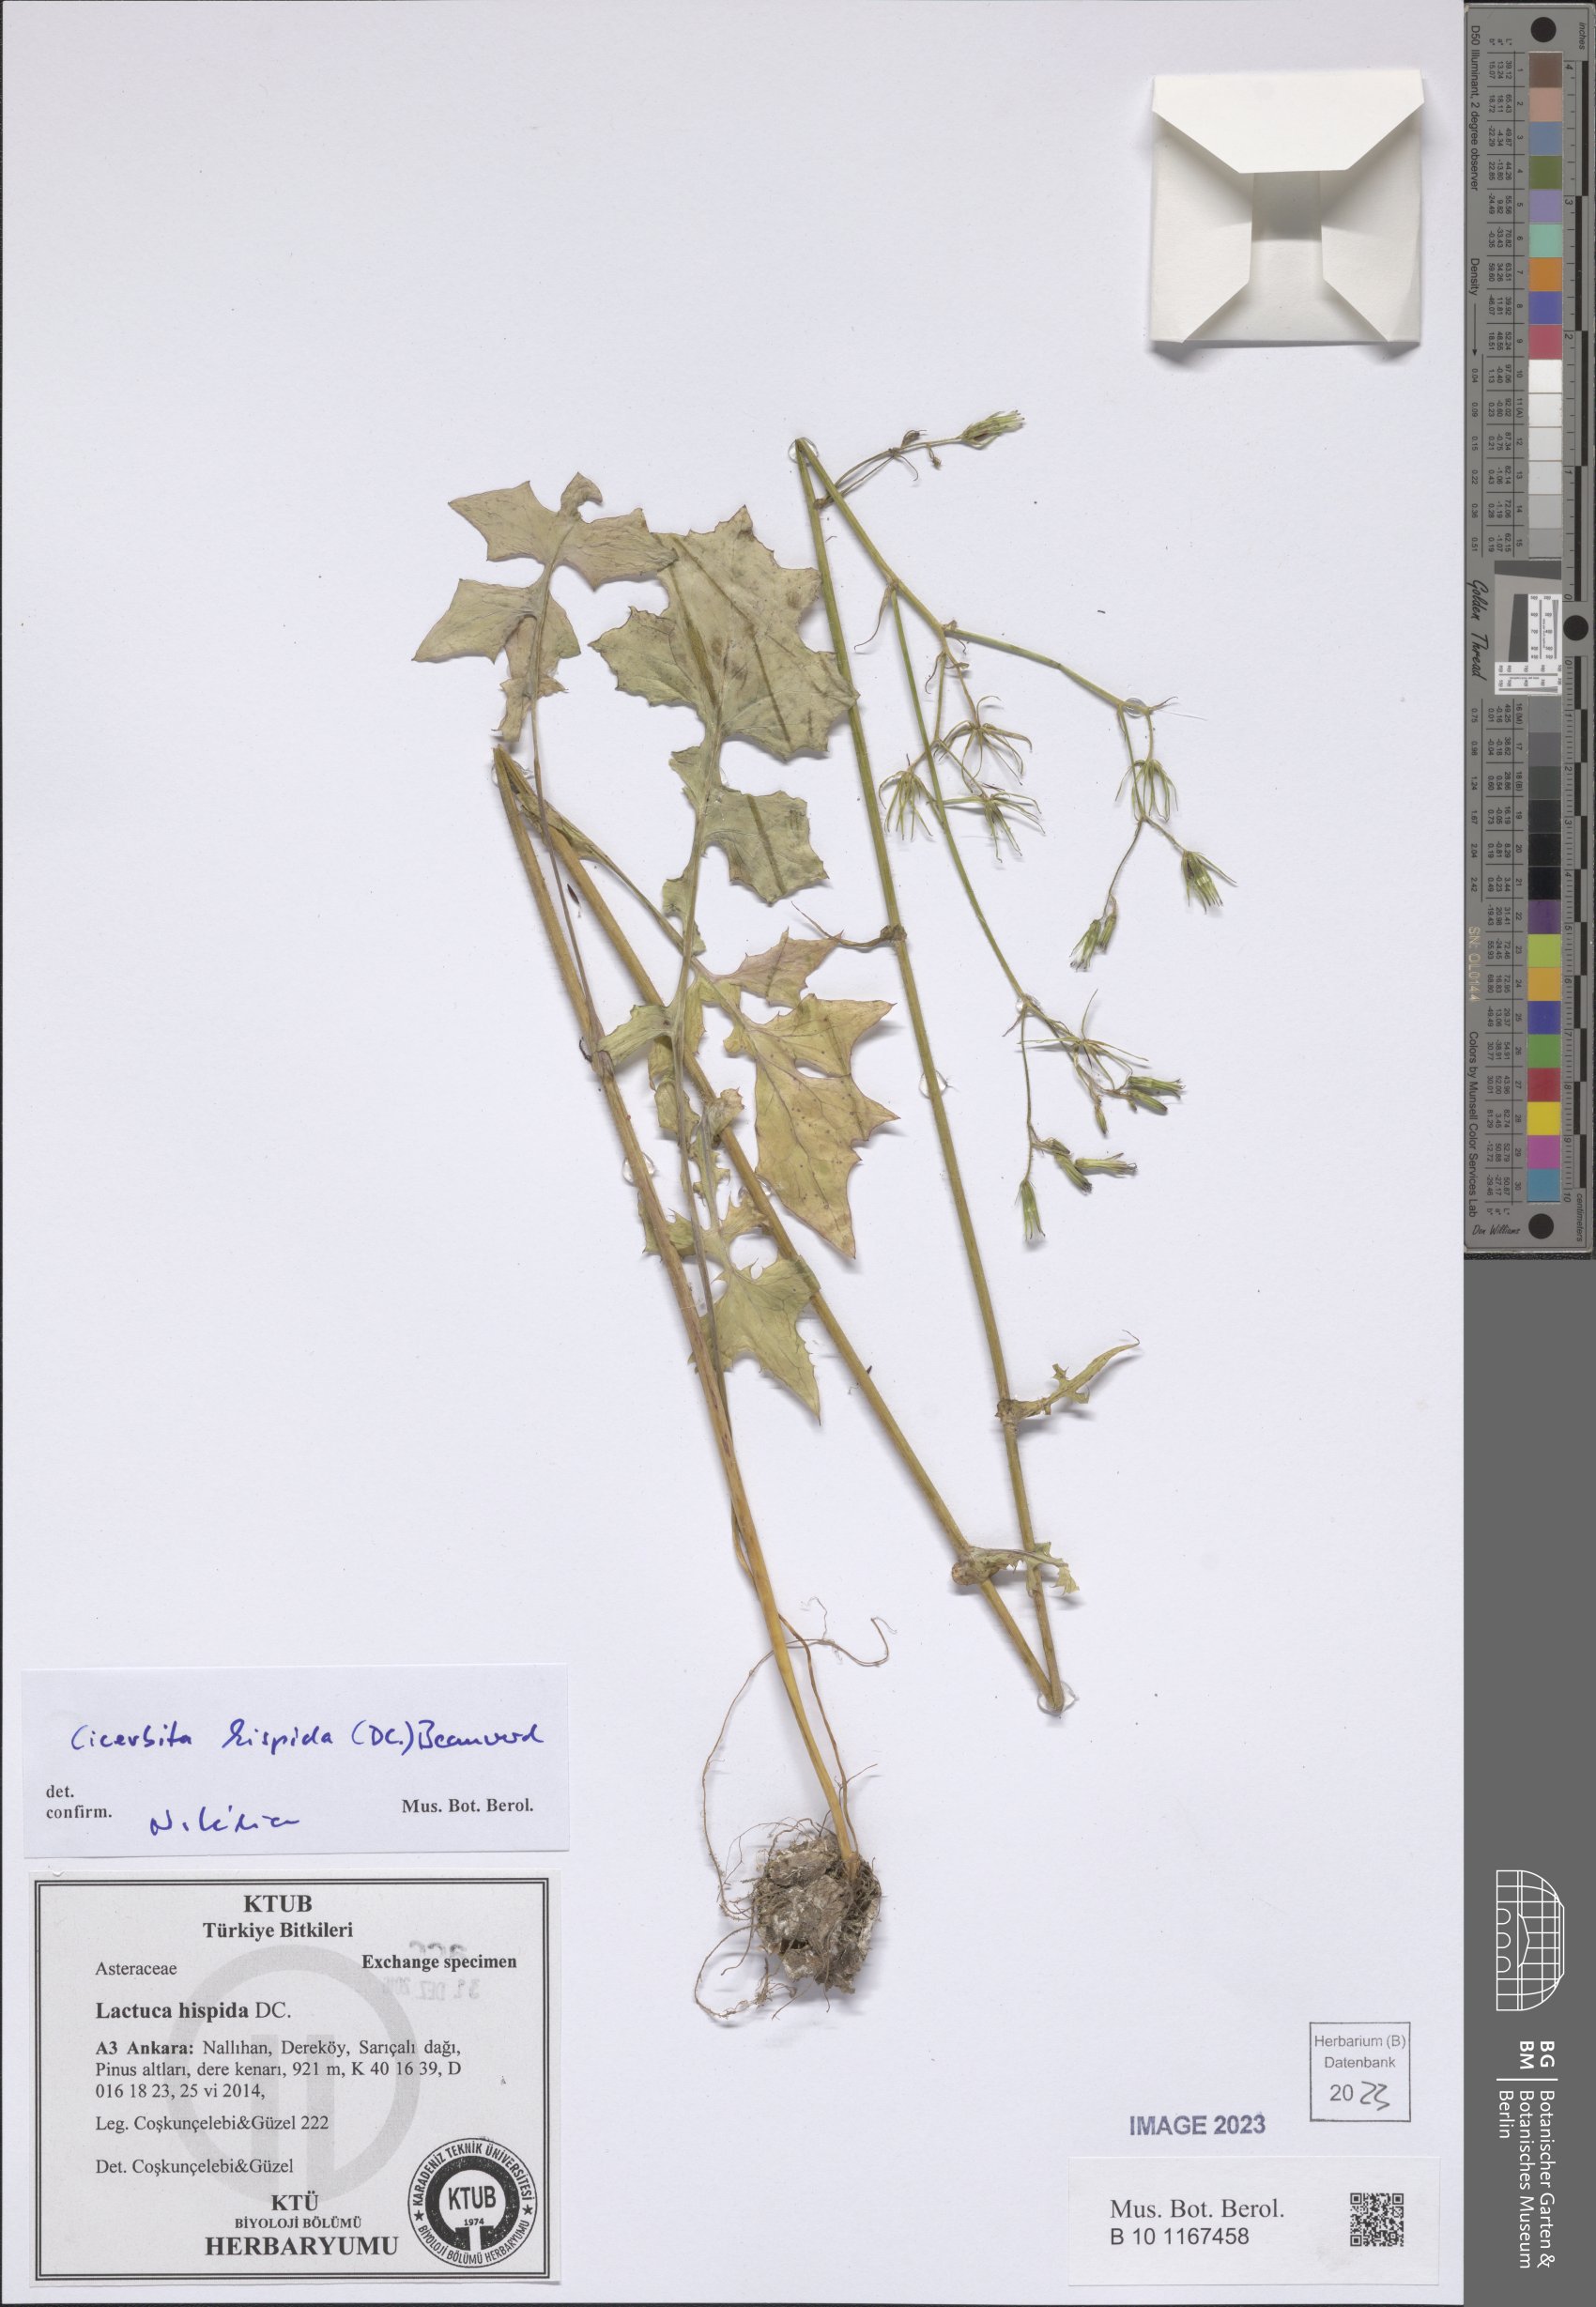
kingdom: Plantae
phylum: Tracheophyta
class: Magnoliopsida
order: Asterales
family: Asteraceae
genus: Lactuca
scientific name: Lactuca hispida
